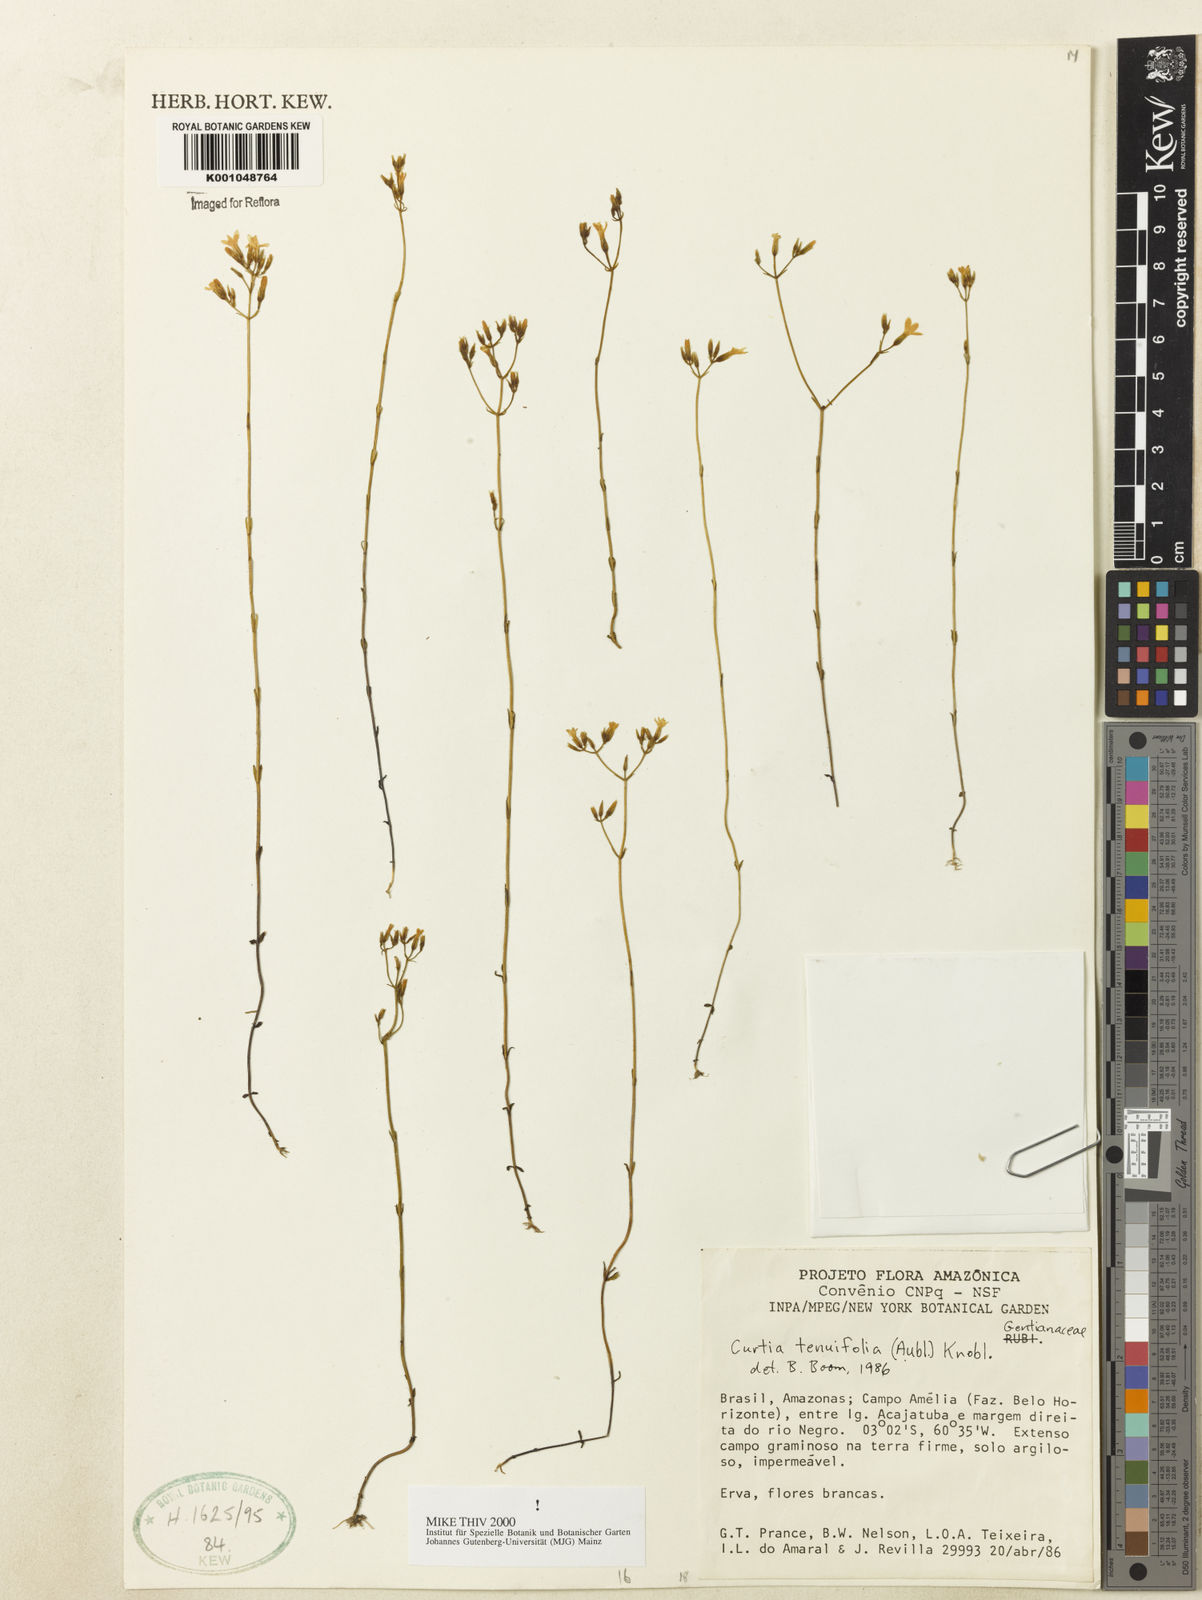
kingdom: Plantae
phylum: Tracheophyta
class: Magnoliopsida
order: Gentianales
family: Gentianaceae
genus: Curtia
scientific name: Curtia tenuifolia
